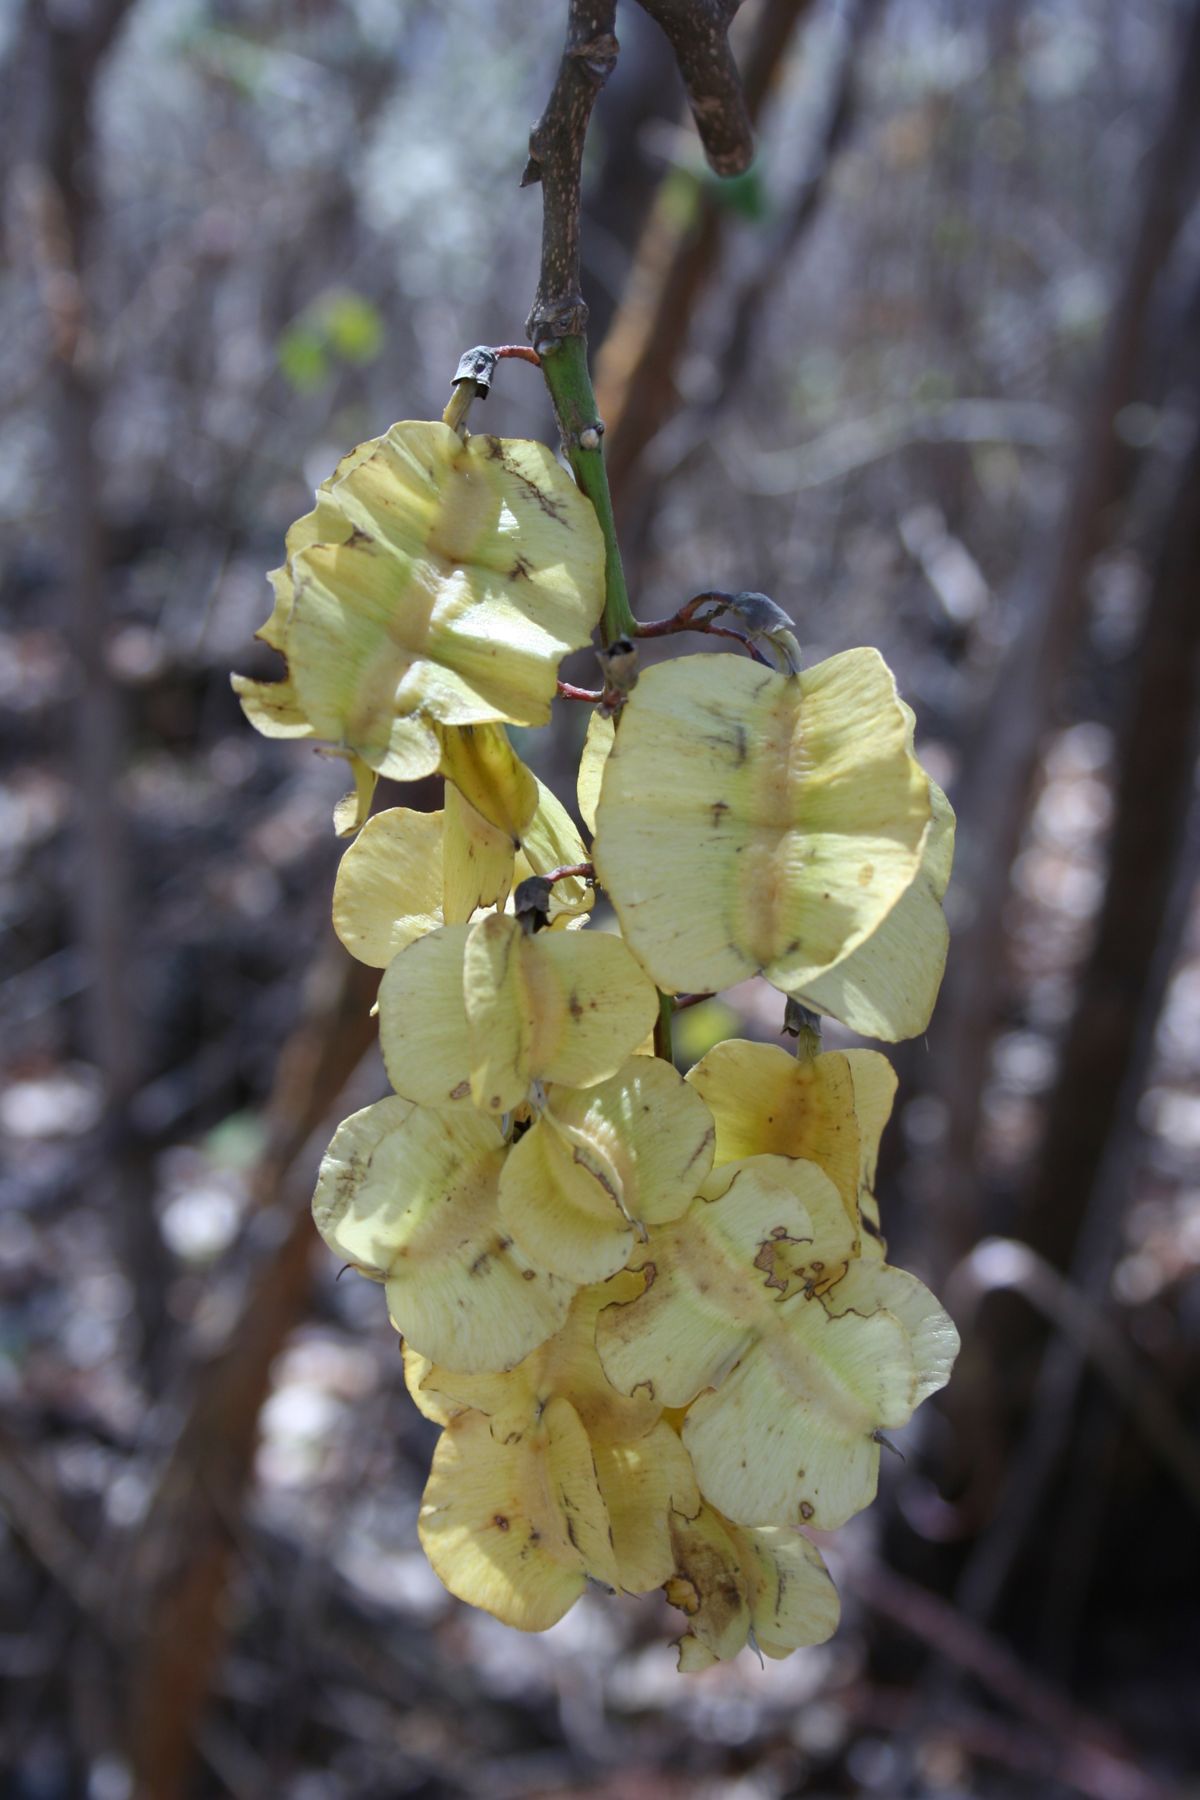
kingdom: Plantae
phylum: Tracheophyta
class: Magnoliopsida
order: Fabales
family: Fabaceae
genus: Piscidia
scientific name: Piscidia carthagenensis
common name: Stinkwood
